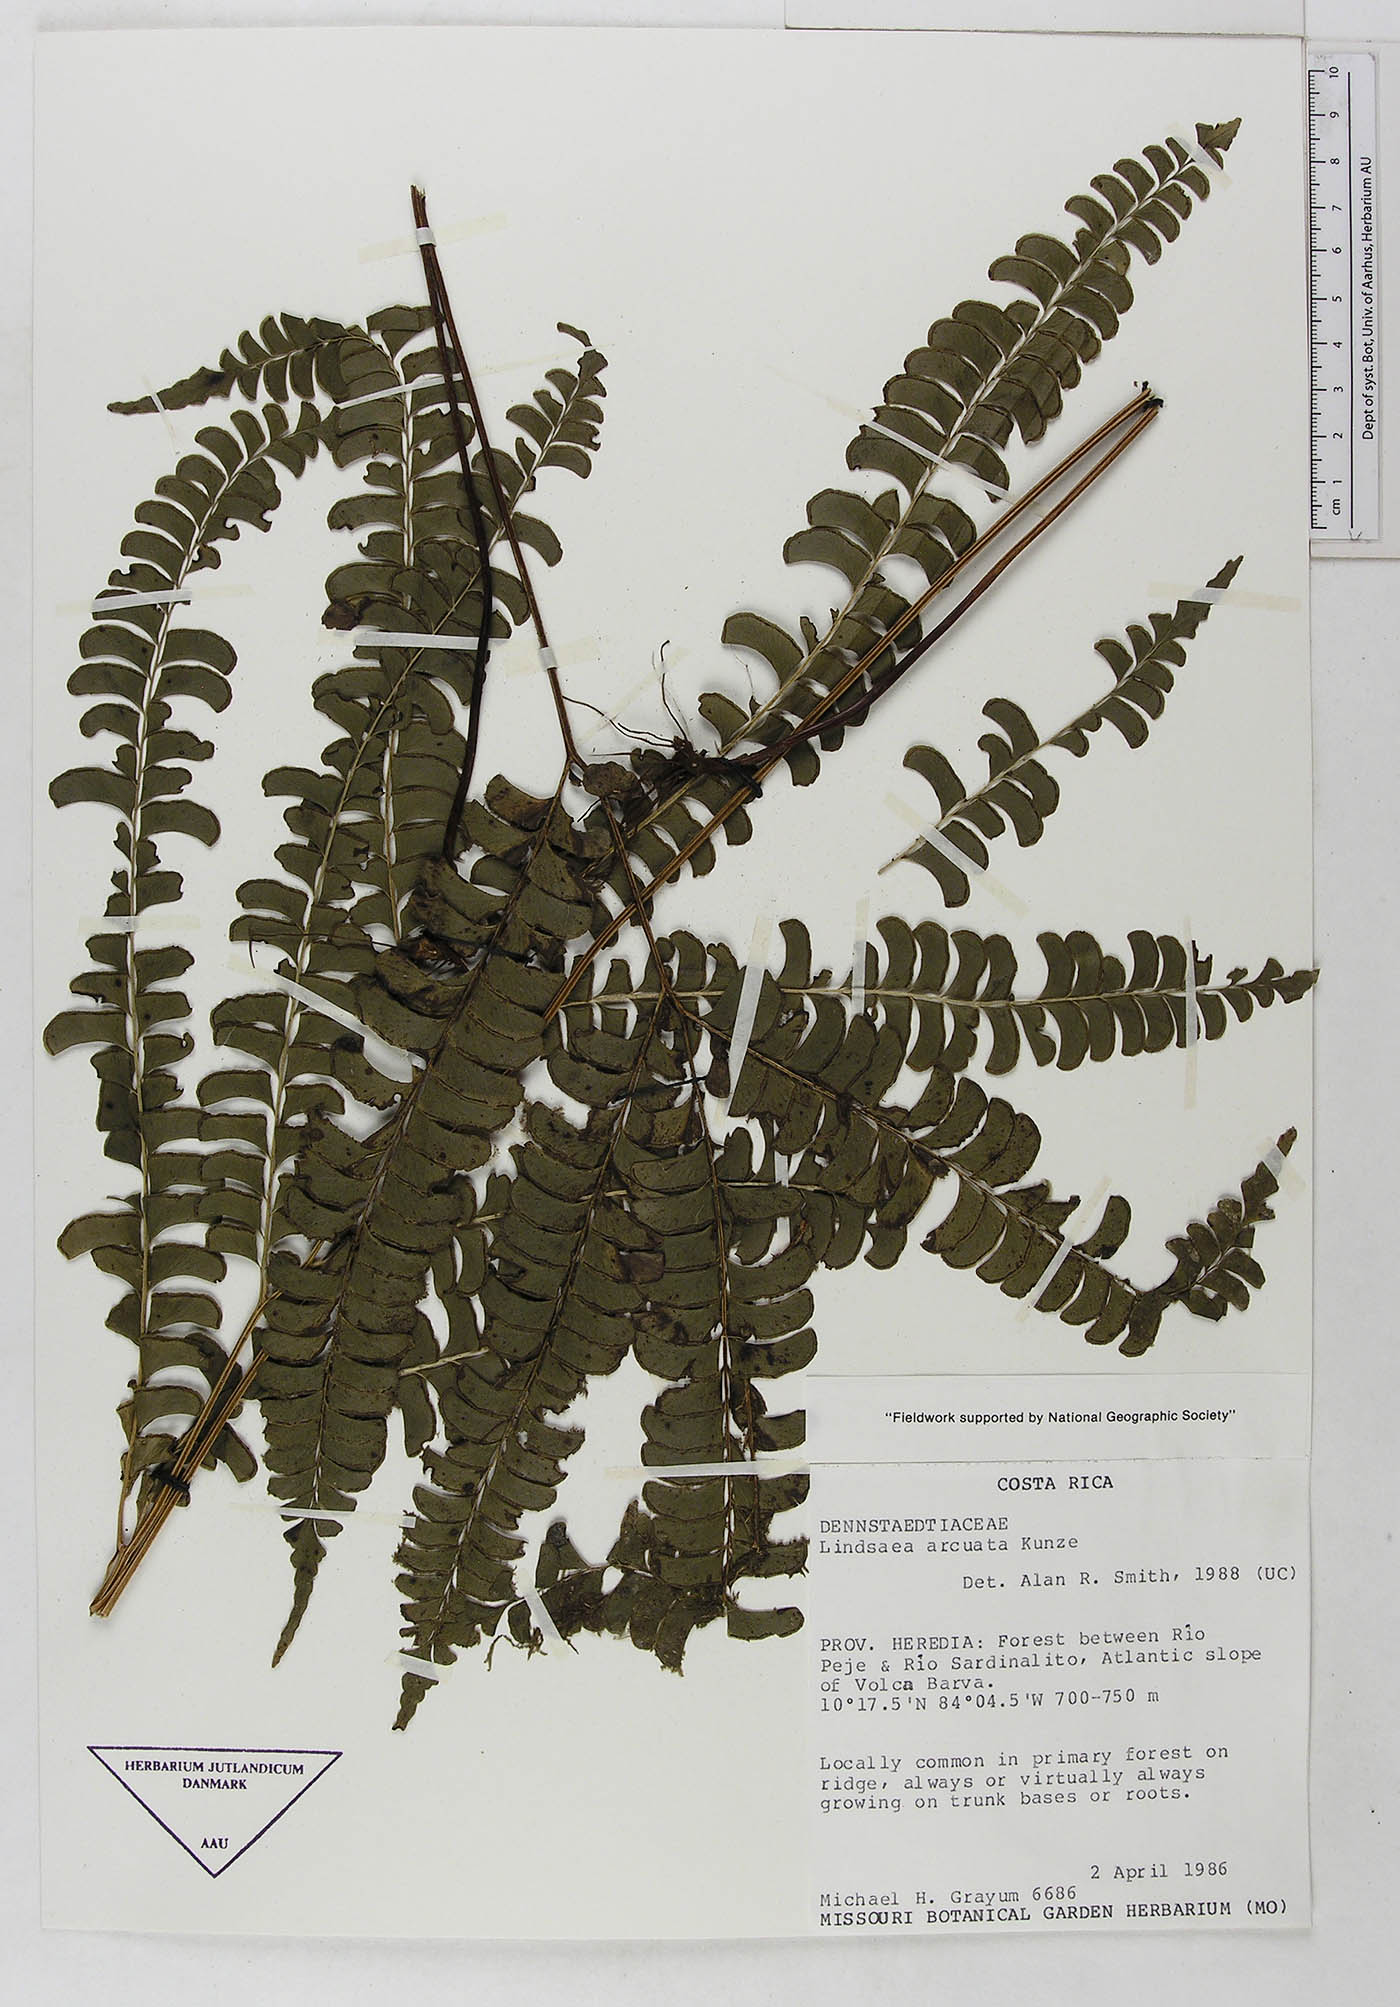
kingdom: Plantae
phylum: Tracheophyta
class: Polypodiopsida
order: Polypodiales
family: Lindsaeaceae
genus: Lindsaea
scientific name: Lindsaea arcuata
